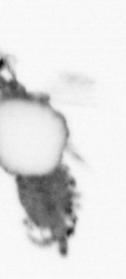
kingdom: Animalia
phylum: Annelida
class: Polychaeta
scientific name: Polychaeta
